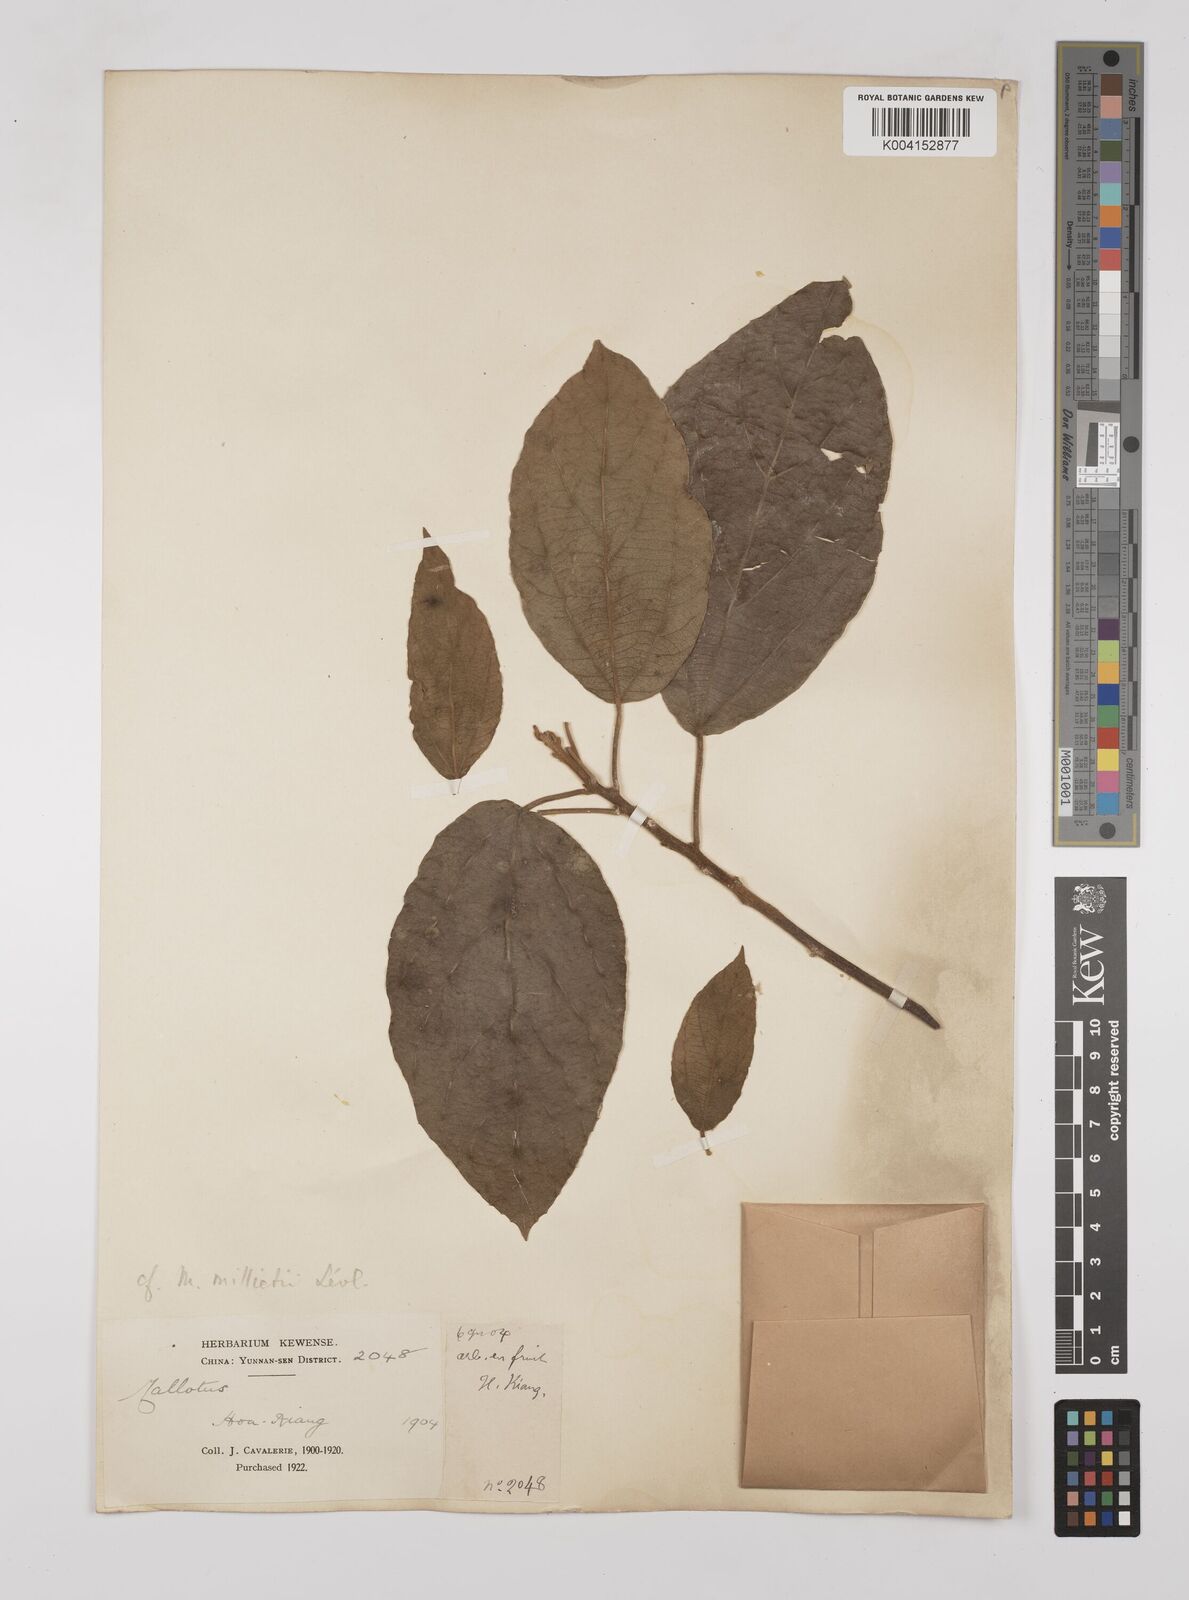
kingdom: Plantae
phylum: Tracheophyta
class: Magnoliopsida
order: Malpighiales
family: Euphorbiaceae
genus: Mallotus
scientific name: Mallotus millietii
